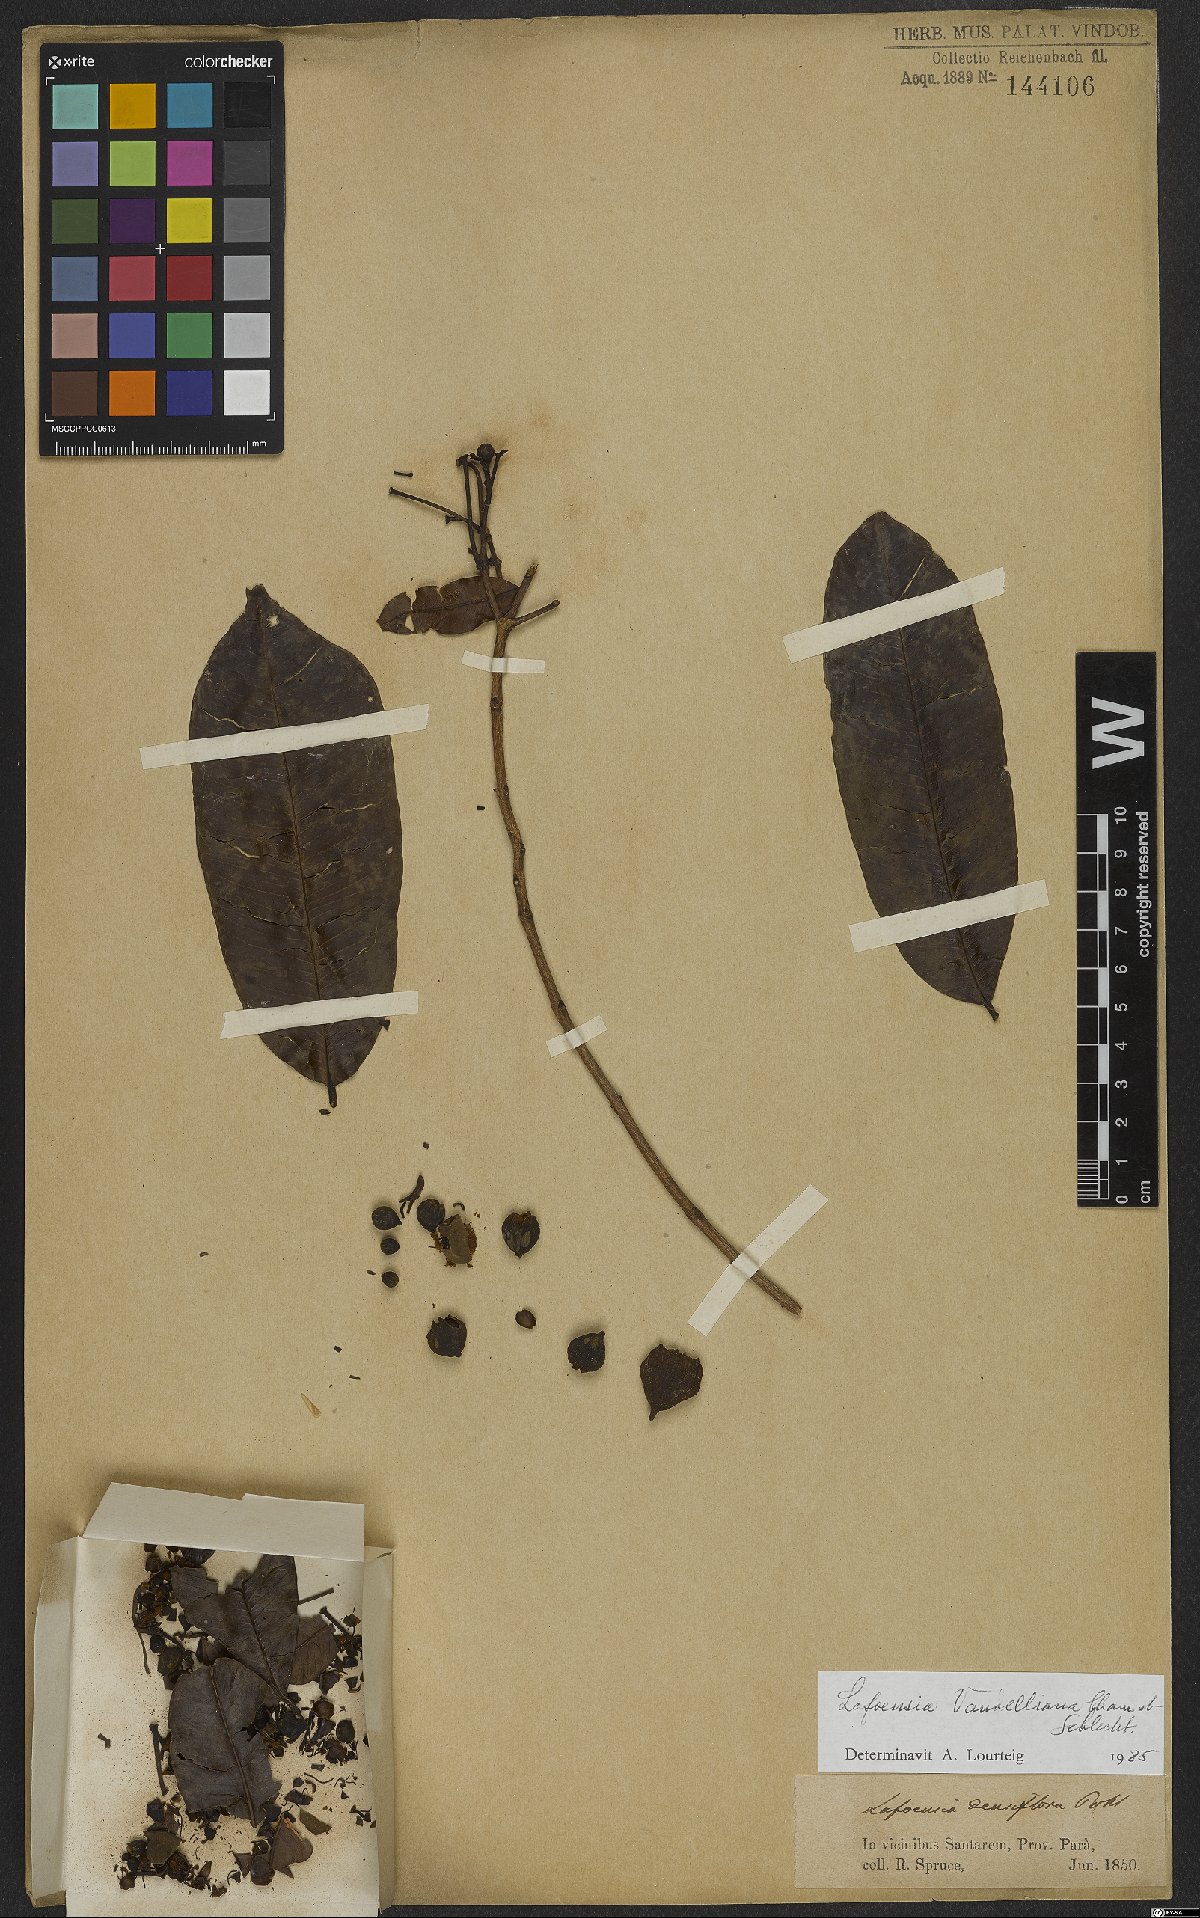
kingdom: Plantae
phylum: Tracheophyta
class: Magnoliopsida
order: Myrtales
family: Lythraceae
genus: Lafoensia
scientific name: Lafoensia vandelliana
